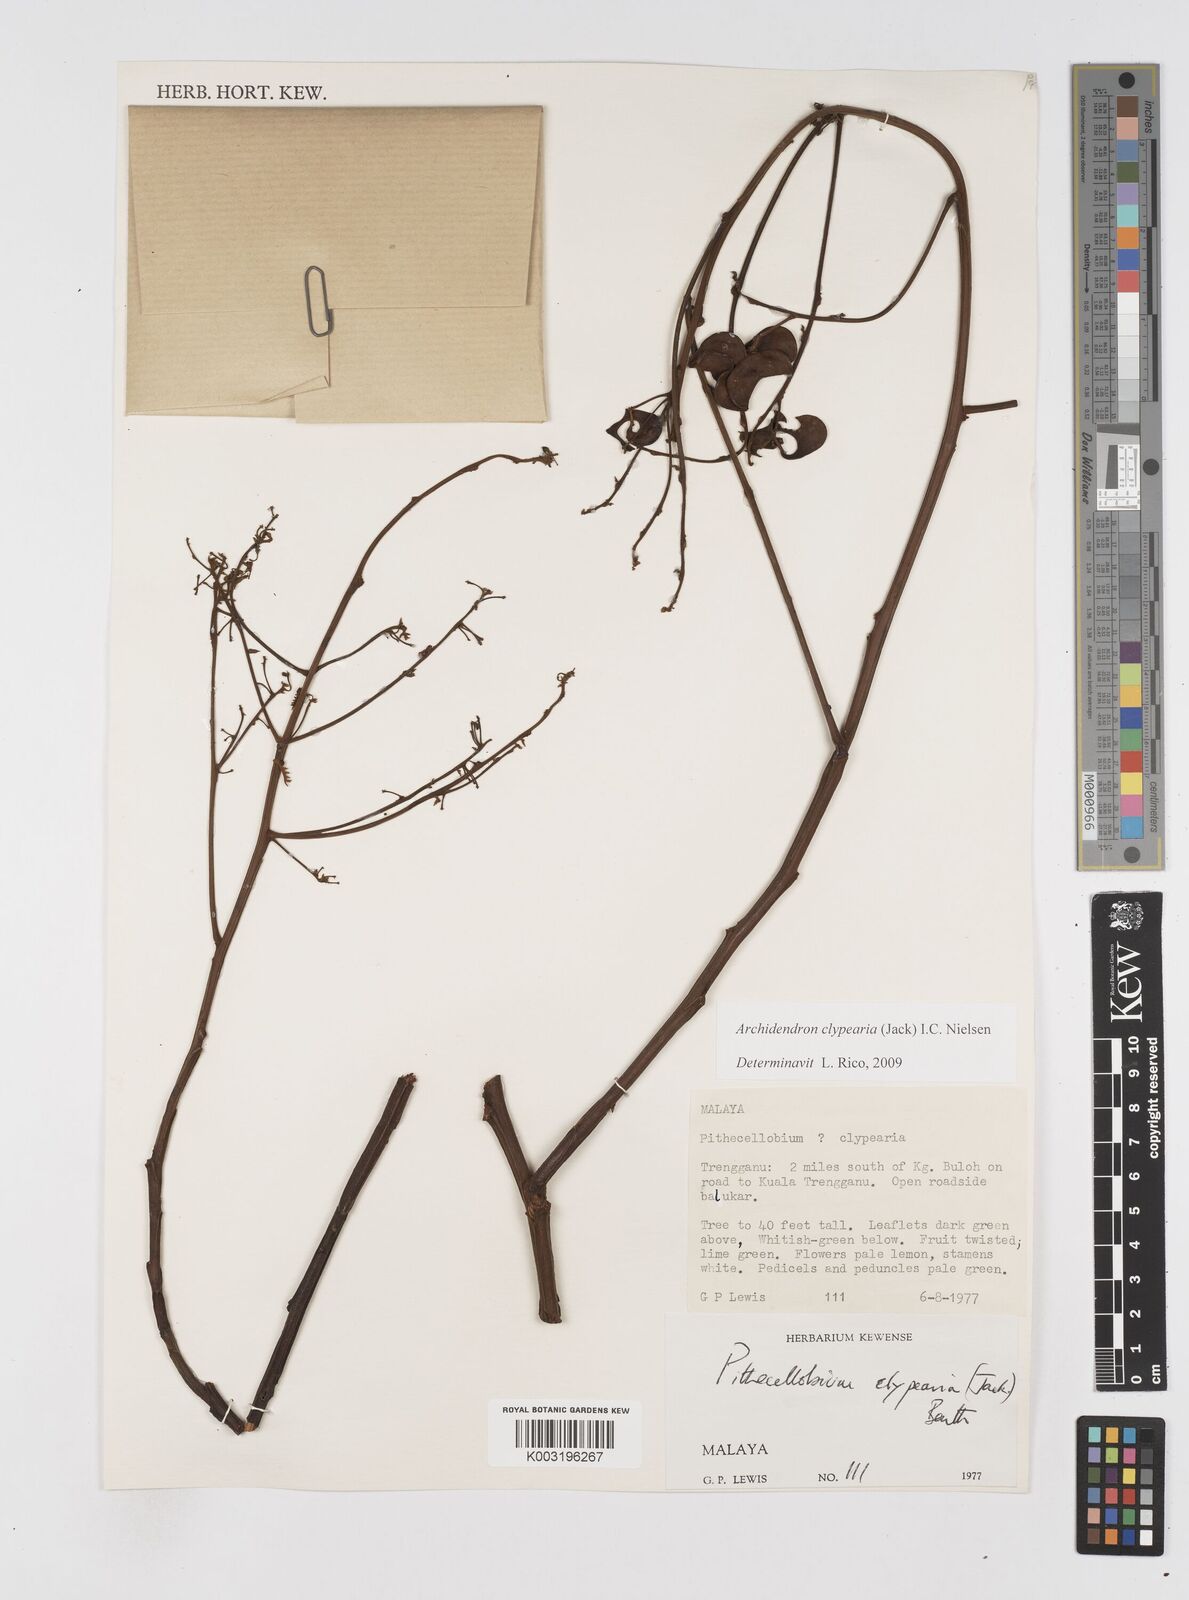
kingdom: Plantae
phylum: Tracheophyta
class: Magnoliopsida
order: Fabales
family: Fabaceae
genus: Archidendron
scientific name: Archidendron clypearia
